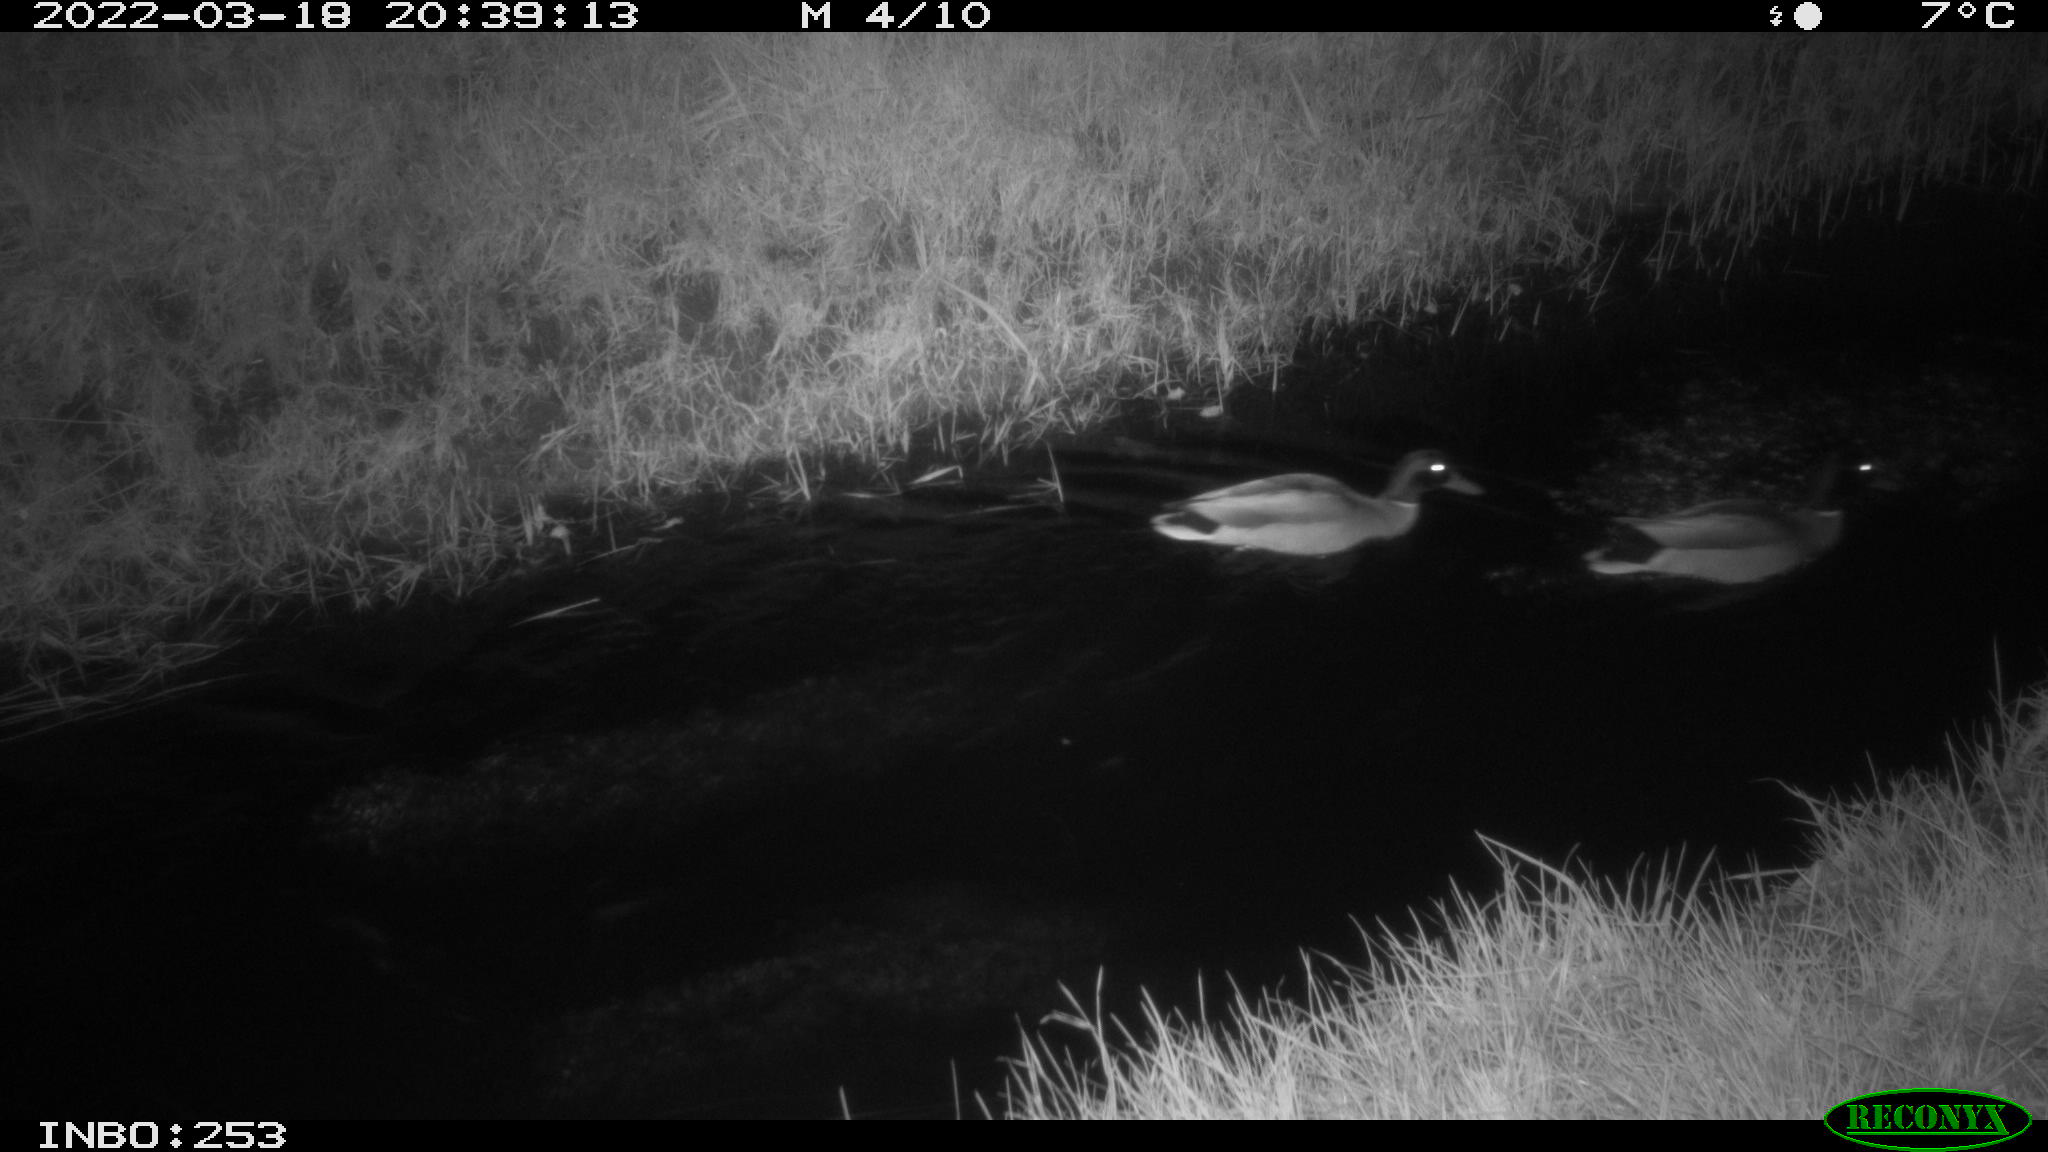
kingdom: Animalia
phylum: Chordata
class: Aves
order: Anseriformes
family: Anatidae
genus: Anas
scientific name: Anas platyrhynchos
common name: Mallard
